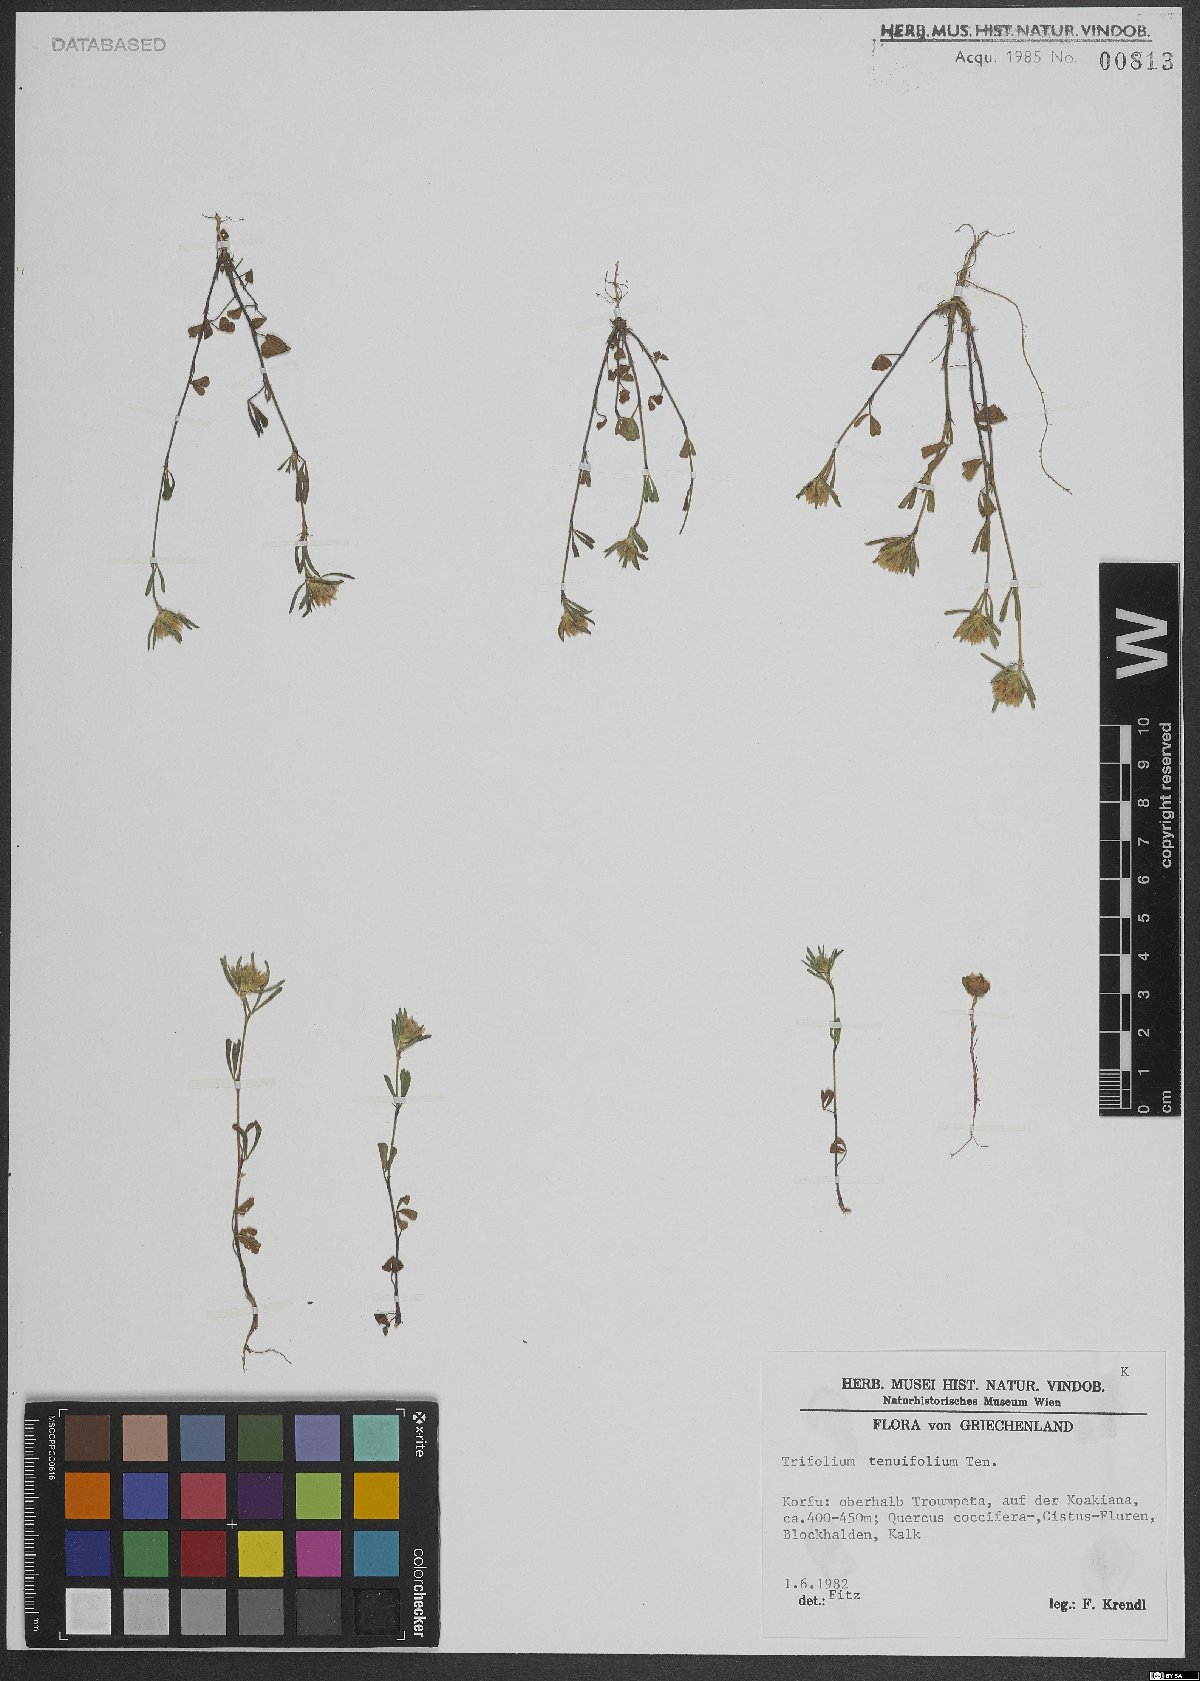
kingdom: Plantae
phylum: Tracheophyta
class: Magnoliopsida
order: Fabales
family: Fabaceae
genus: Trifolium
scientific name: Trifolium tenuifolium
